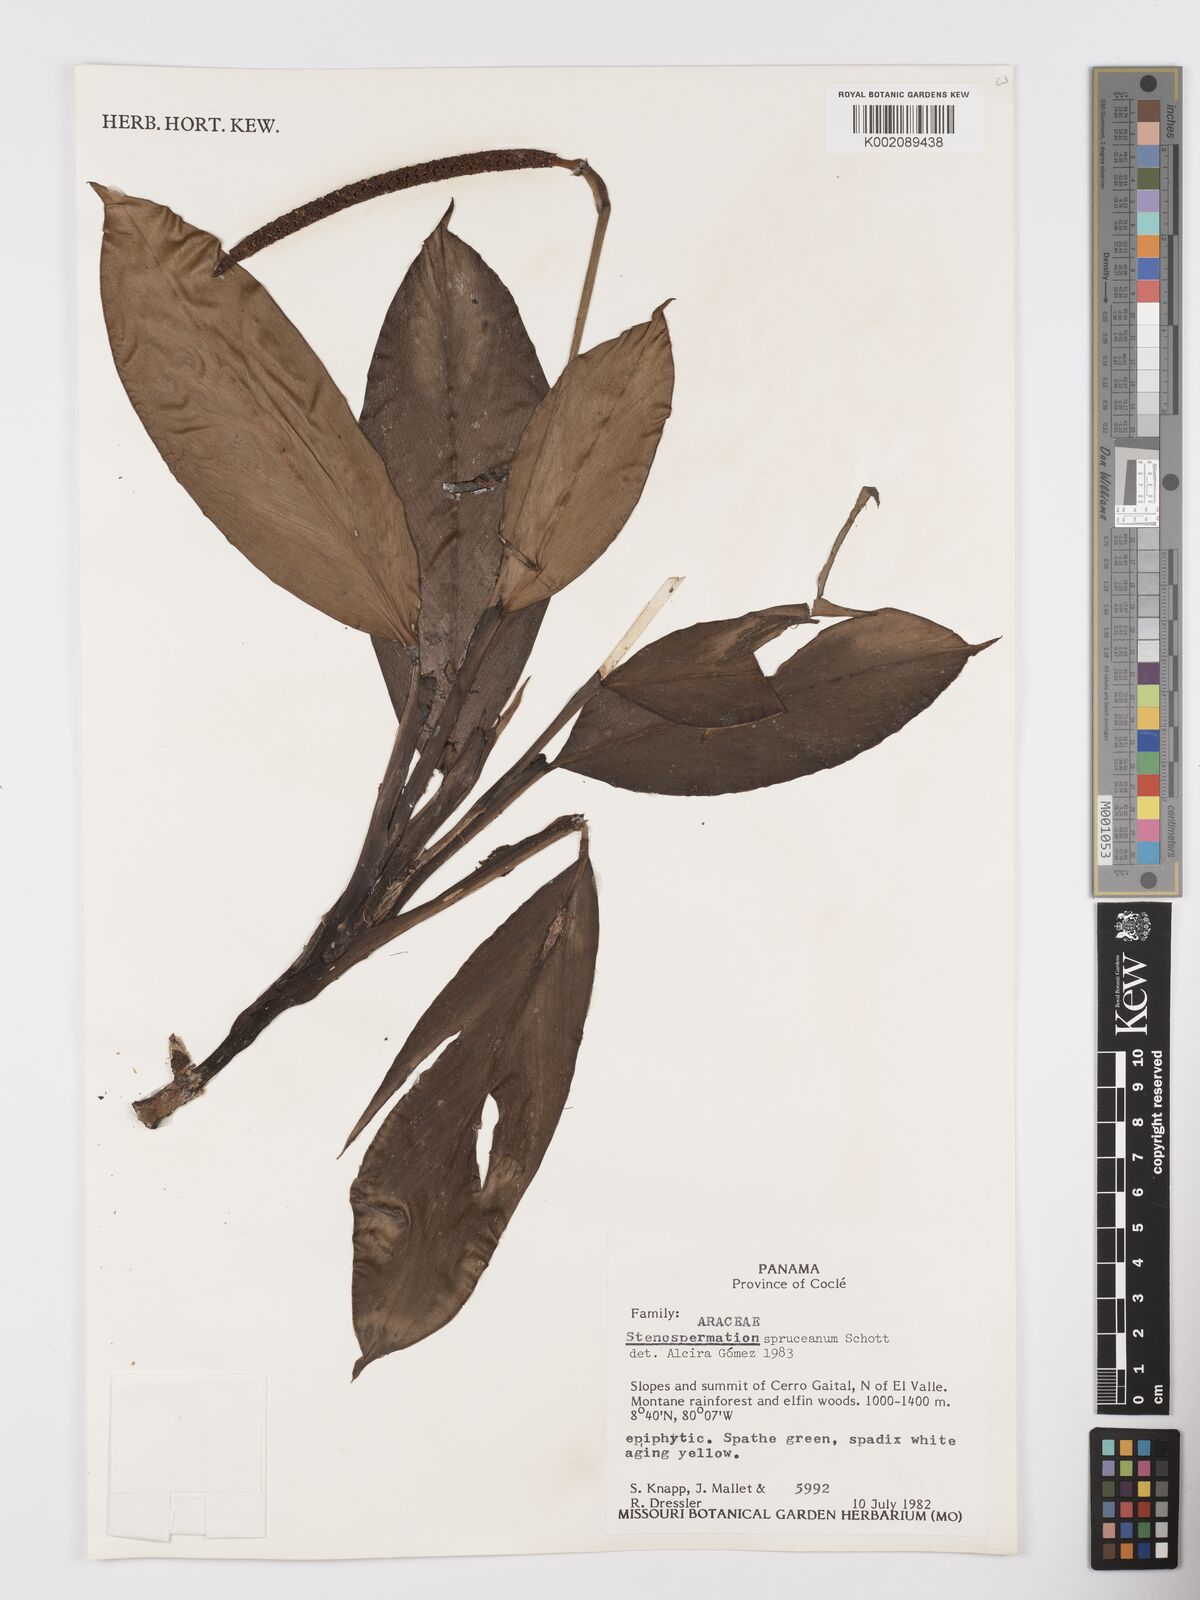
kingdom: Plantae
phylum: Tracheophyta
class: Liliopsida
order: Alismatales
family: Araceae
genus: Stenospermation
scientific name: Stenospermation spruceanum
